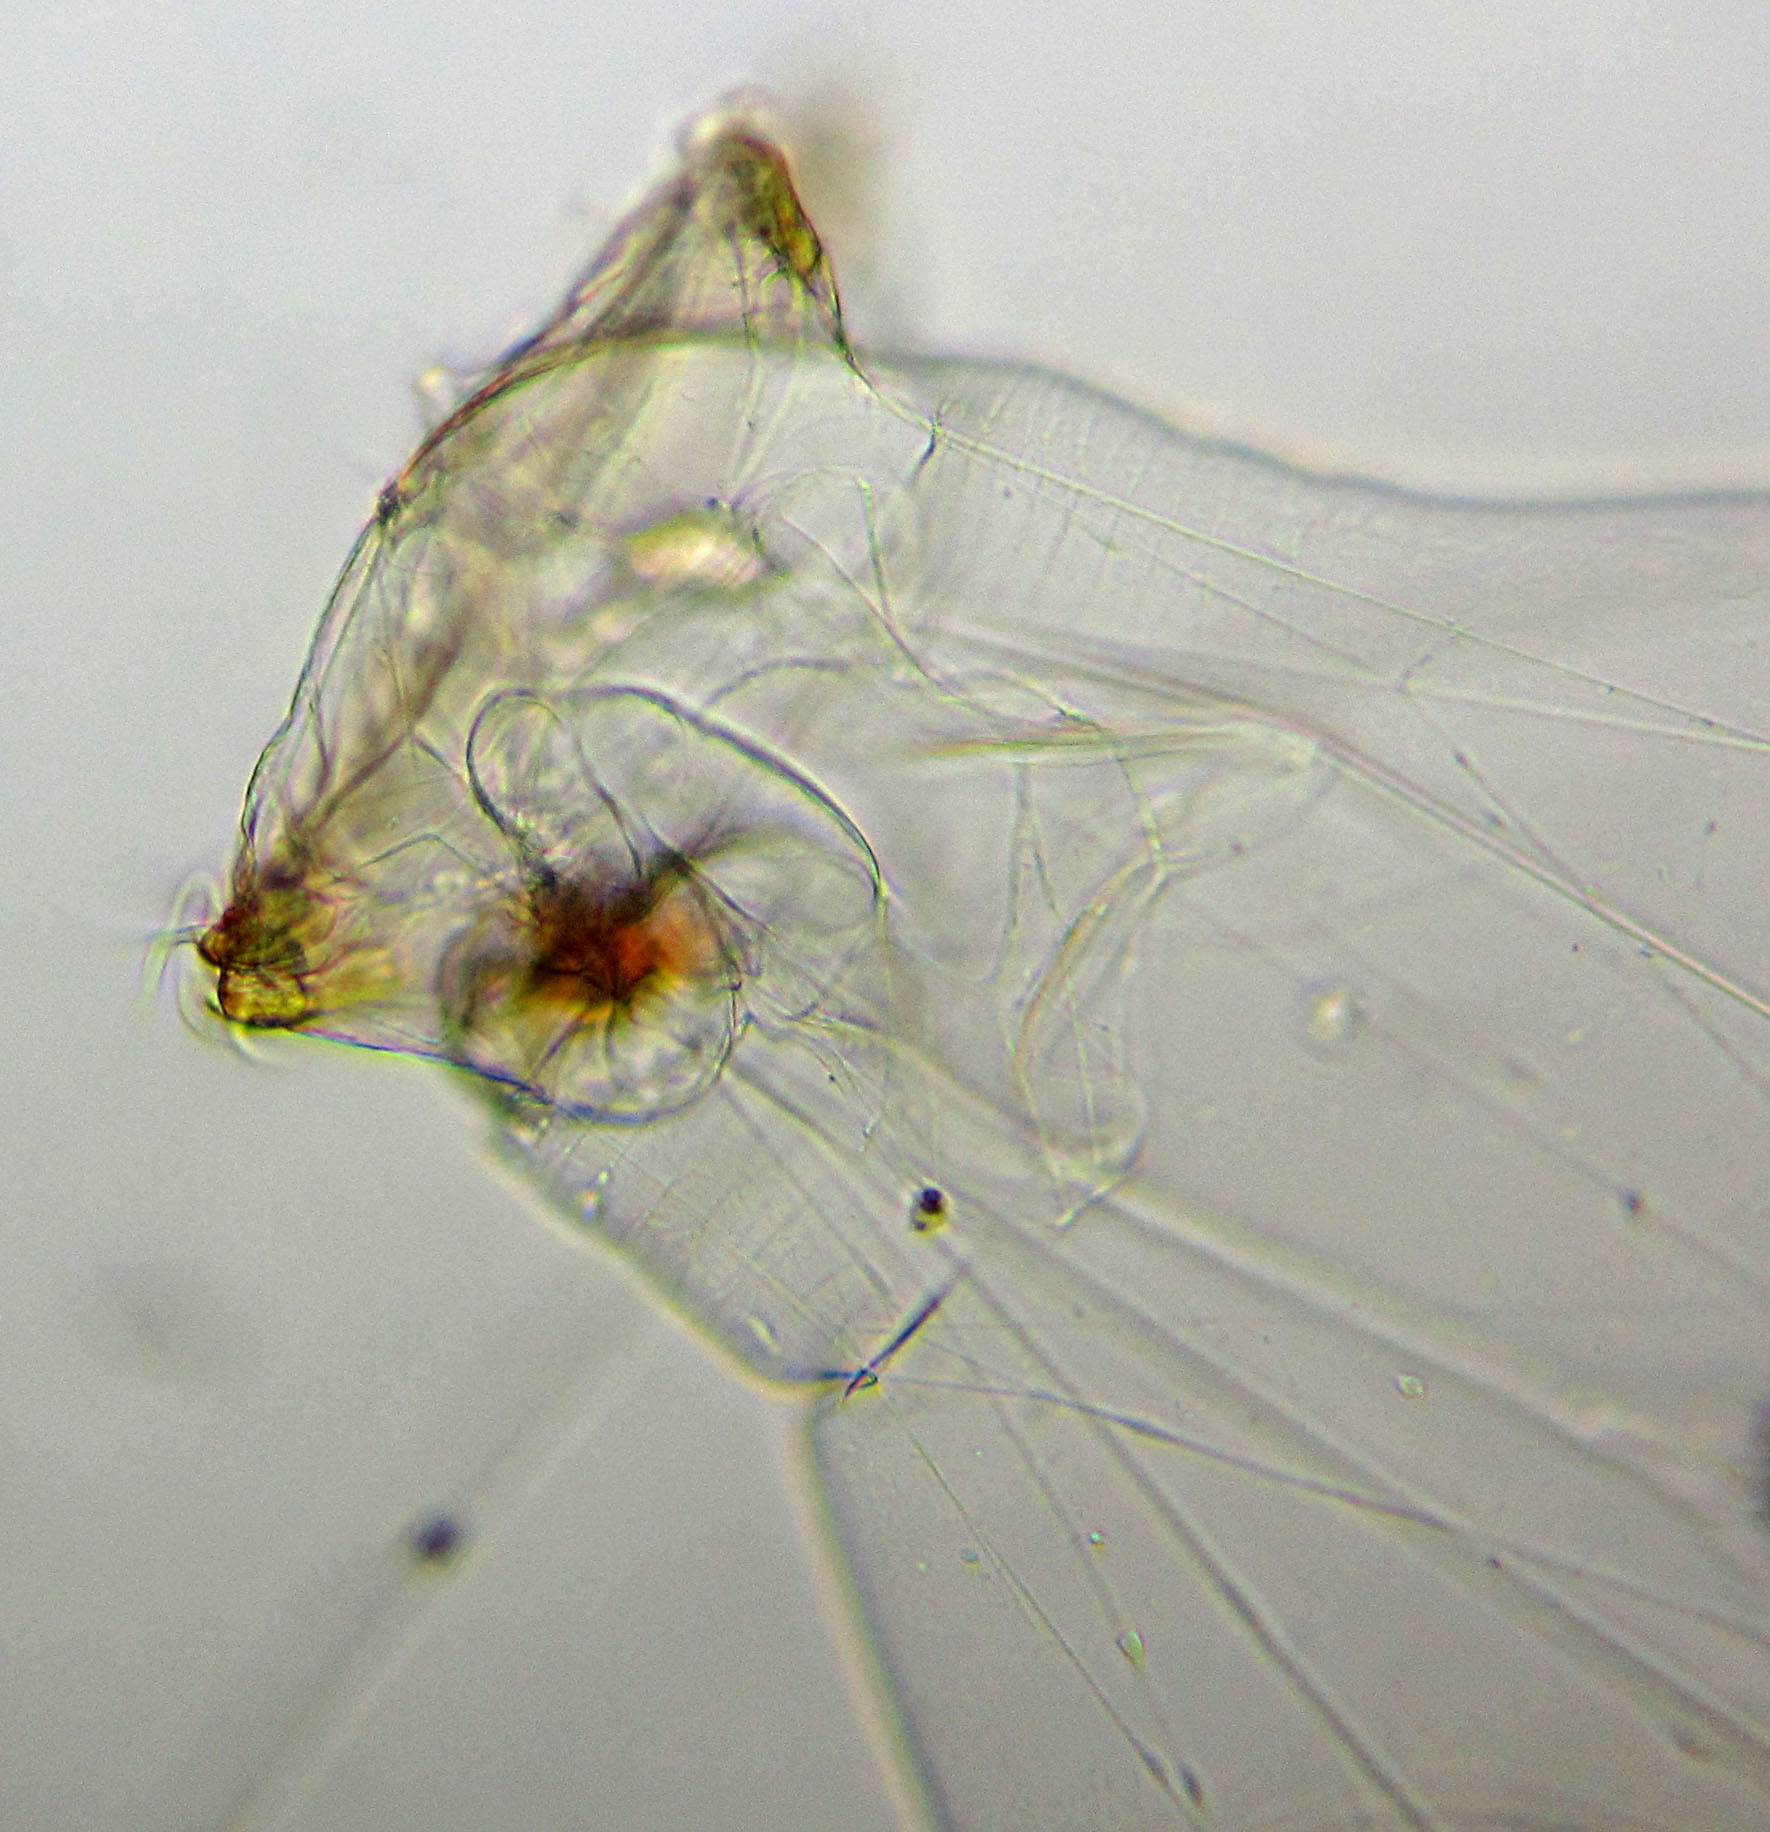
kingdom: Animalia
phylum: Rotifera
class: Eurotatoria
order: Ploima
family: Asplanchnidae
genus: Asplanchna
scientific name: Asplanchna priodonta
